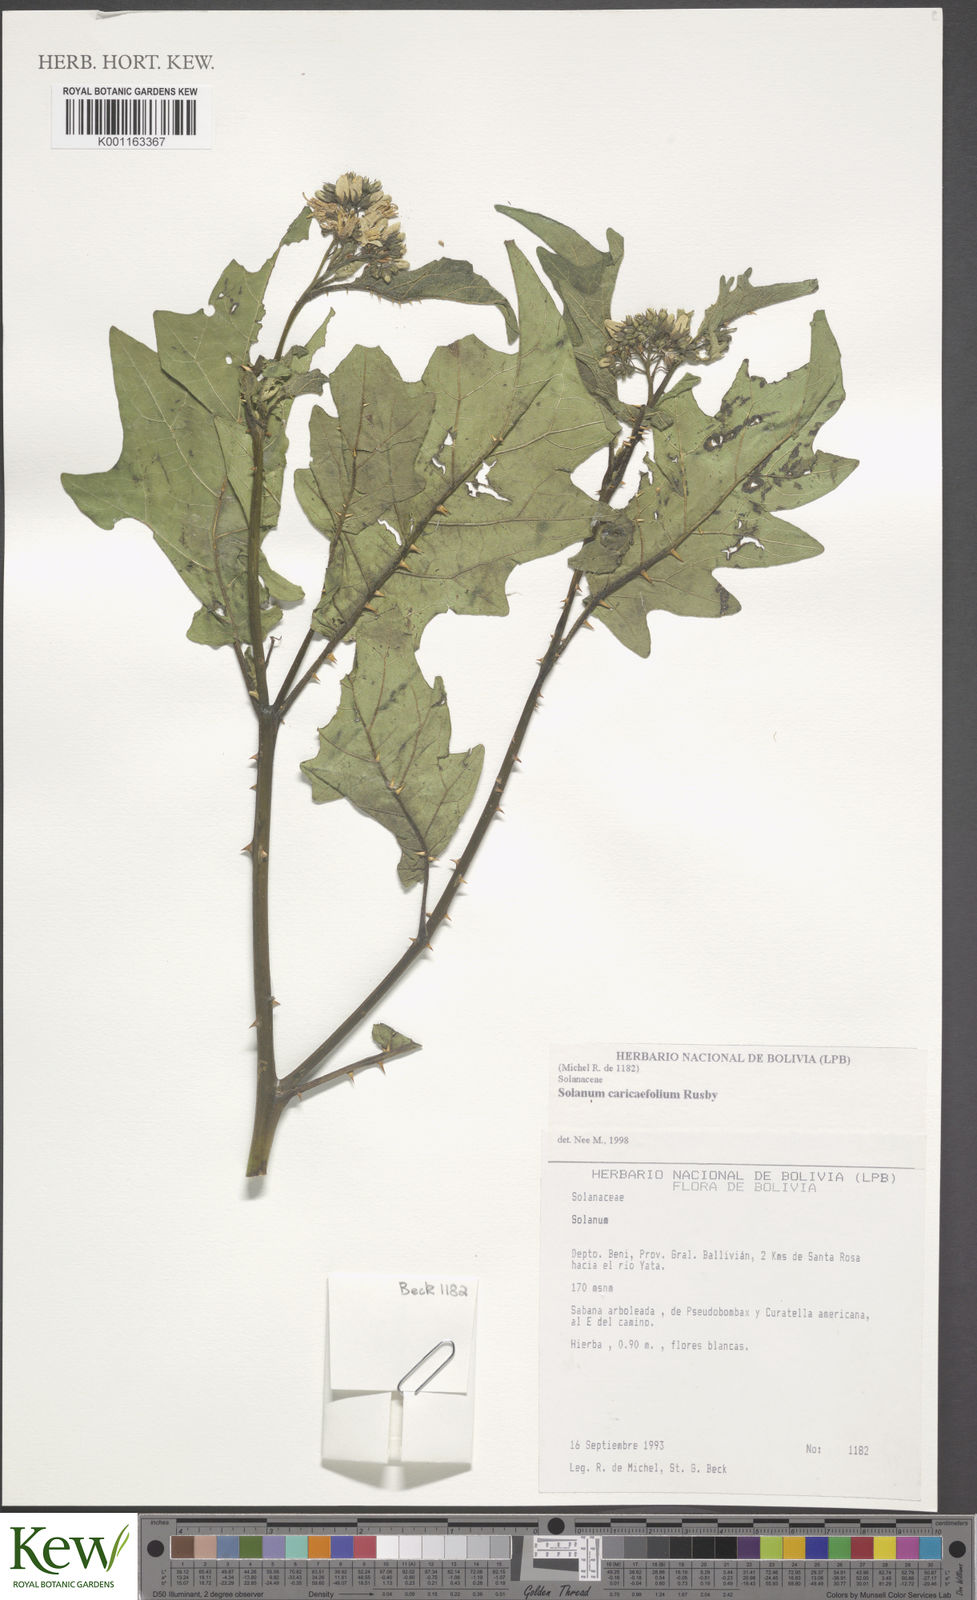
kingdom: Plantae
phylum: Tracheophyta
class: Magnoliopsida
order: Solanales
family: Solanaceae
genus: Solanum
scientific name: Solanum caricaefolium
